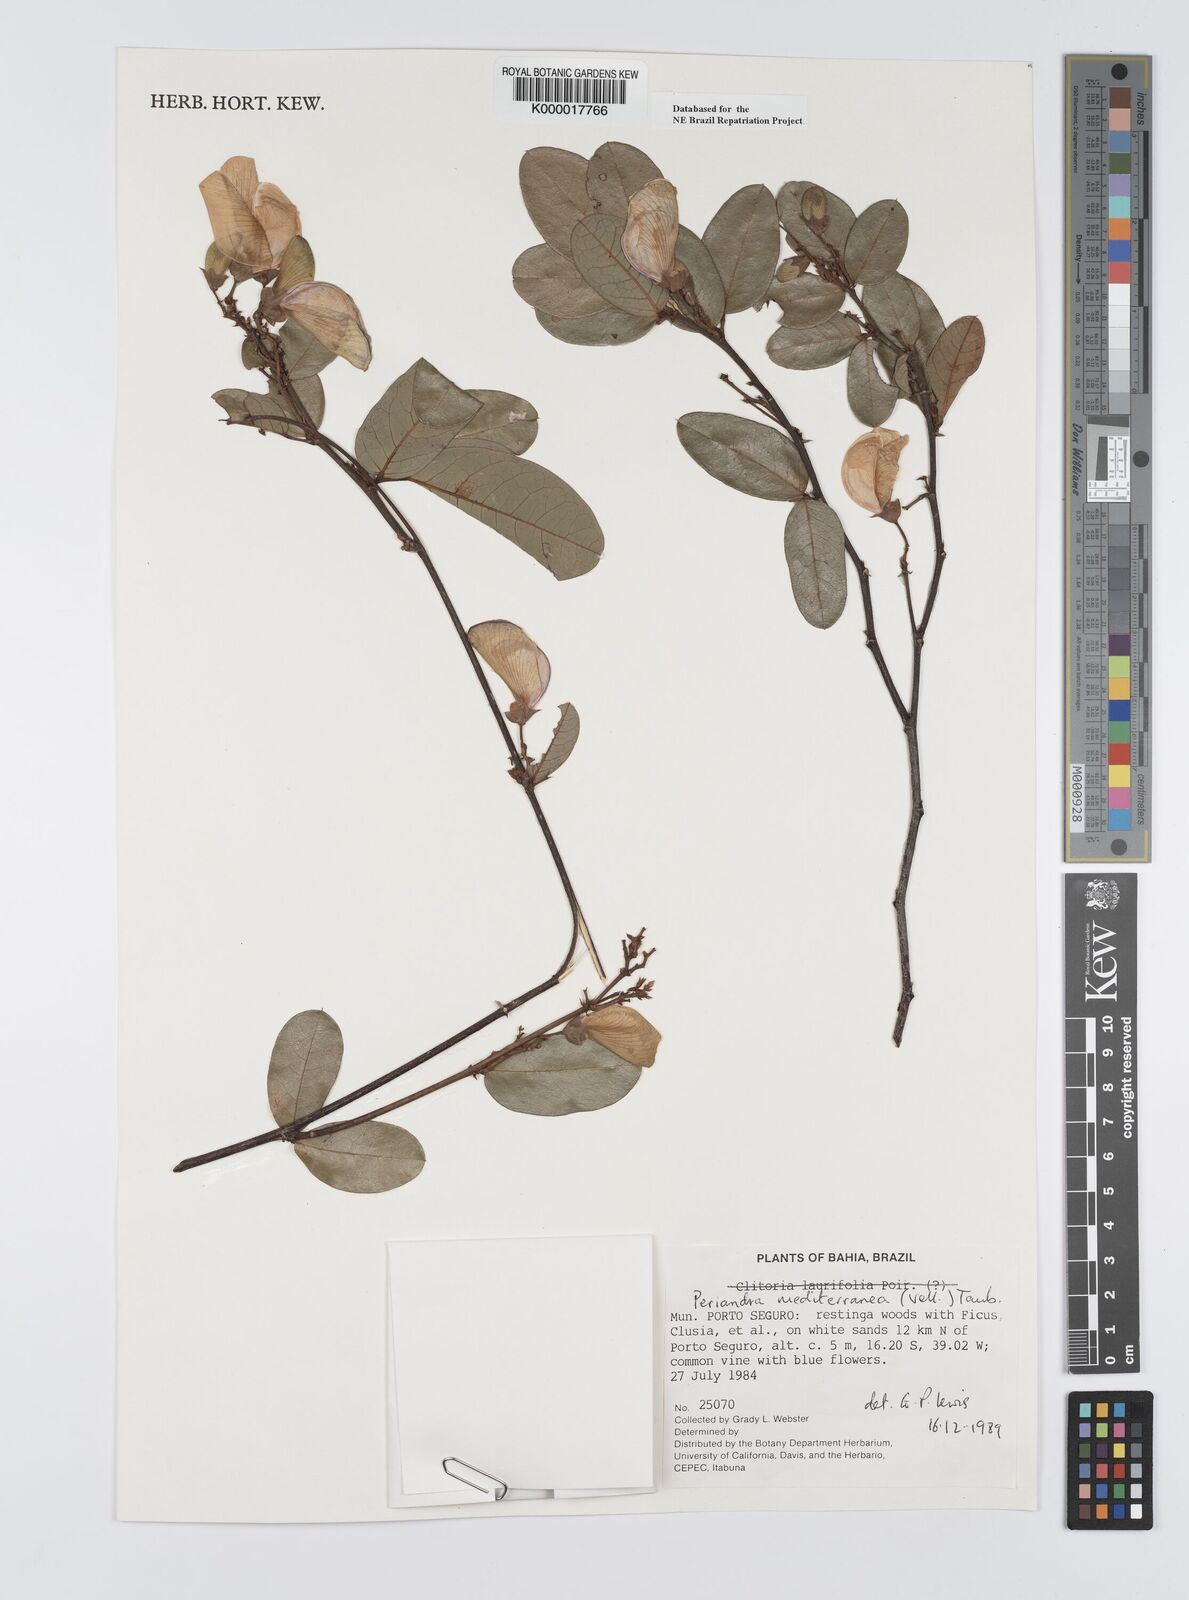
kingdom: Plantae
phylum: Tracheophyta
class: Magnoliopsida
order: Fabales
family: Fabaceae
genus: Periandra
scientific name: Periandra mediterranea
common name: Brazilian licorice
